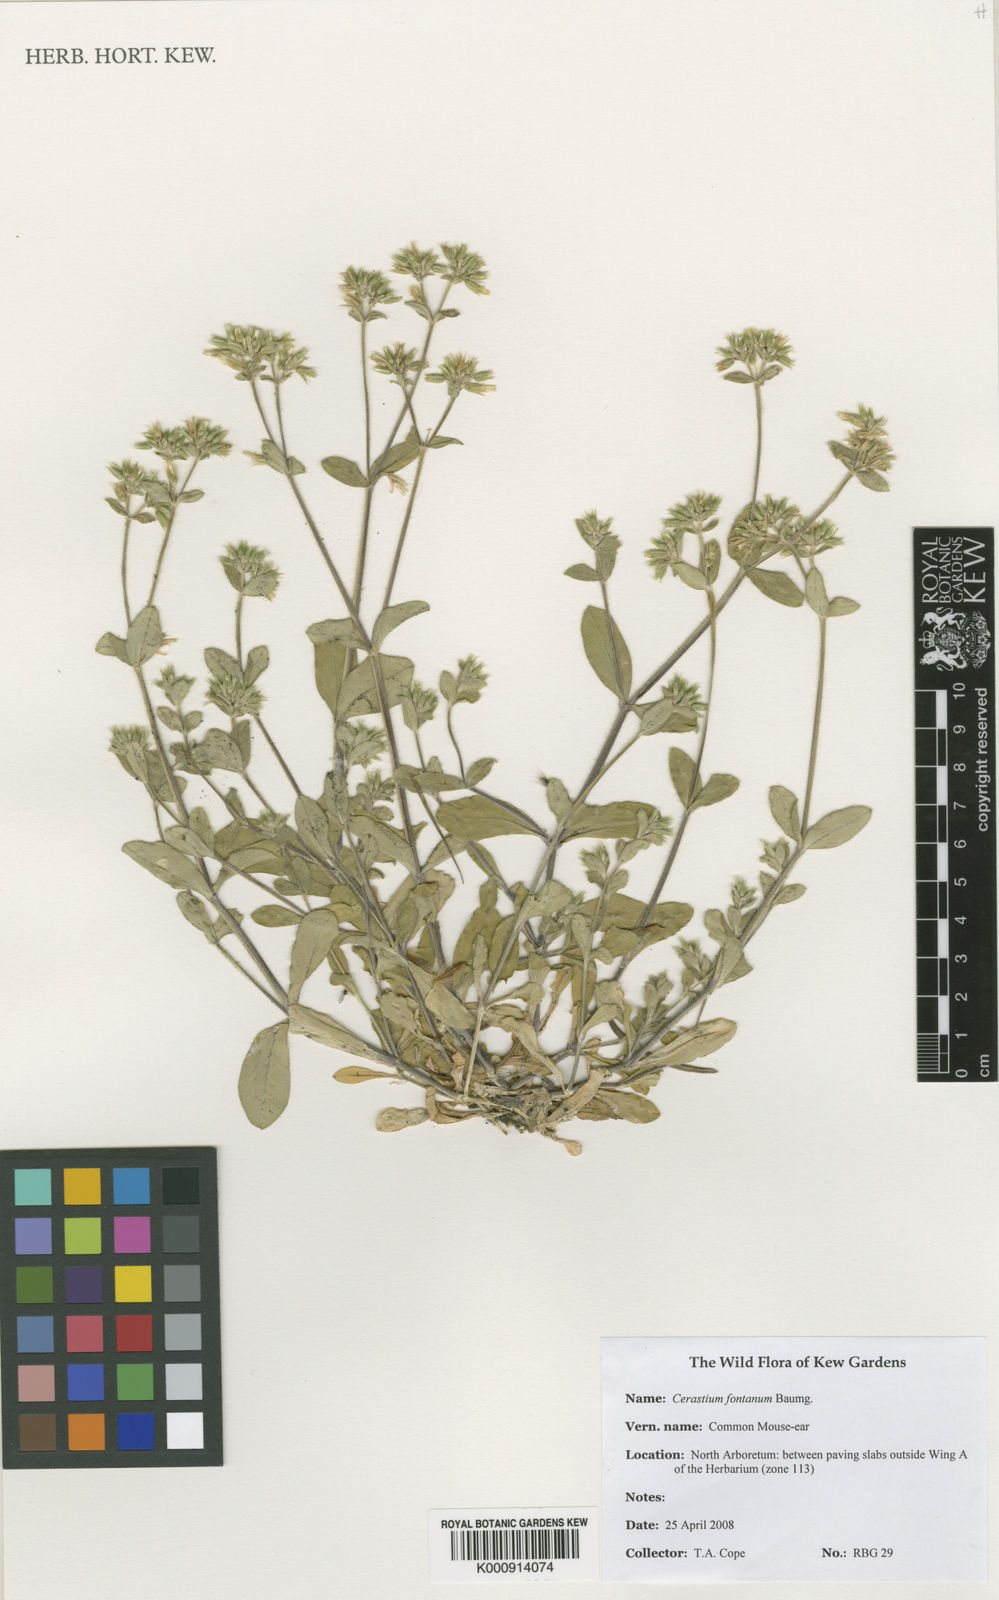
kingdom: Plantae
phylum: Tracheophyta
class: Magnoliopsida
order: Caryophyllales
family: Caryophyllaceae
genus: Cerastium
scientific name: Cerastium fontanum
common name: Common mouse-ear
